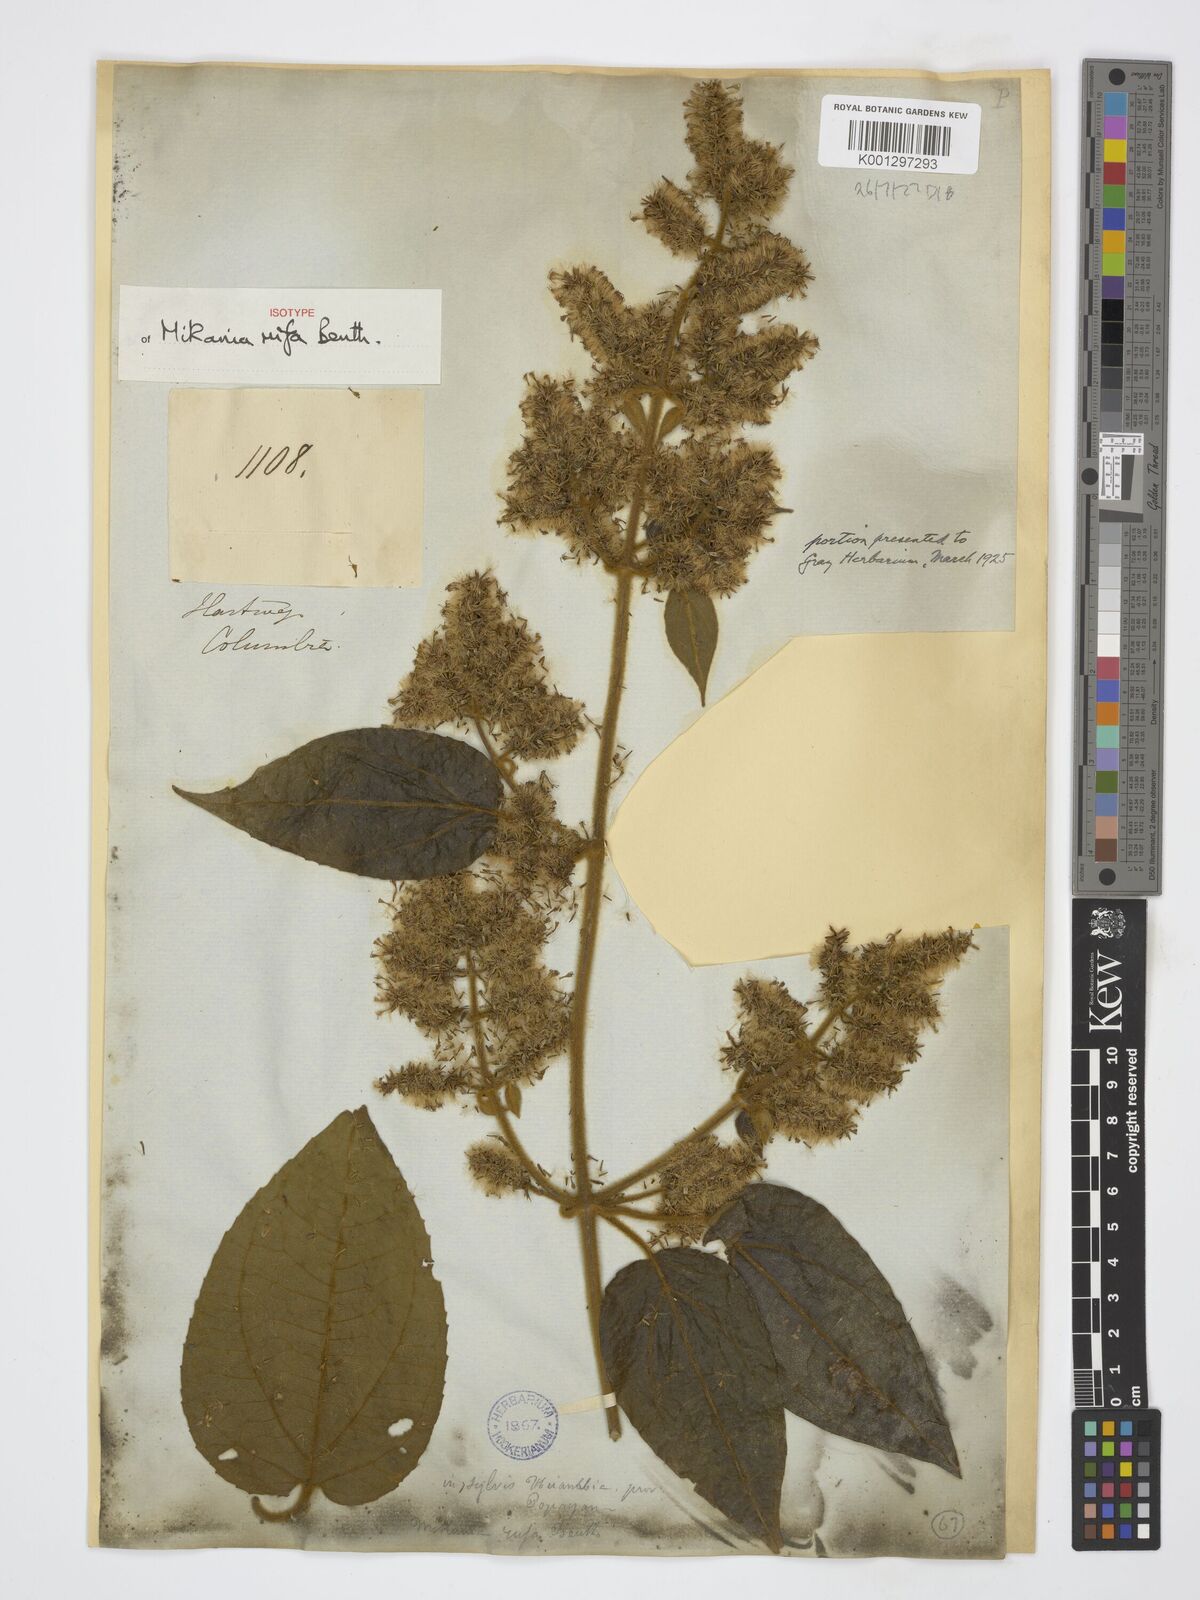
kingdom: Plantae
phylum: Tracheophyta
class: Magnoliopsida
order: Asterales
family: Asteraceae
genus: Mikania
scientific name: Mikania rufa
